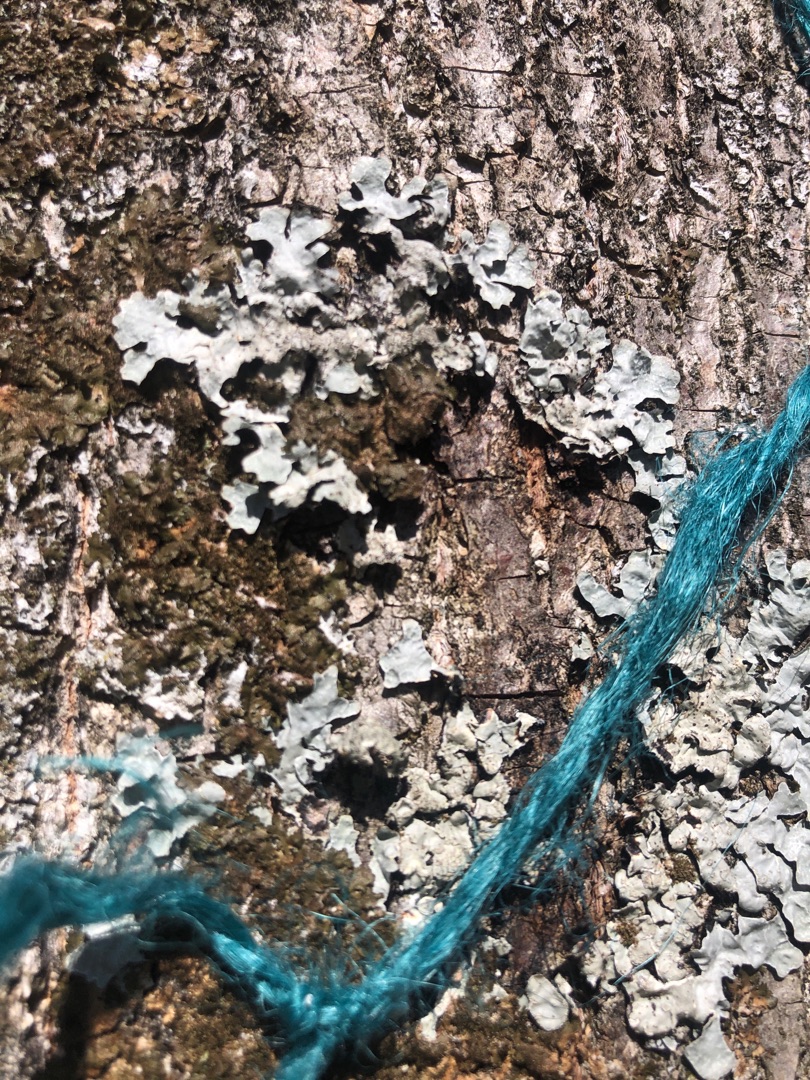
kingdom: Fungi
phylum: Ascomycota
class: Lecanoromycetes
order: Lecanorales
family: Parmeliaceae
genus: Parmelia
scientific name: Parmelia sulcata
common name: Rynket skållav
